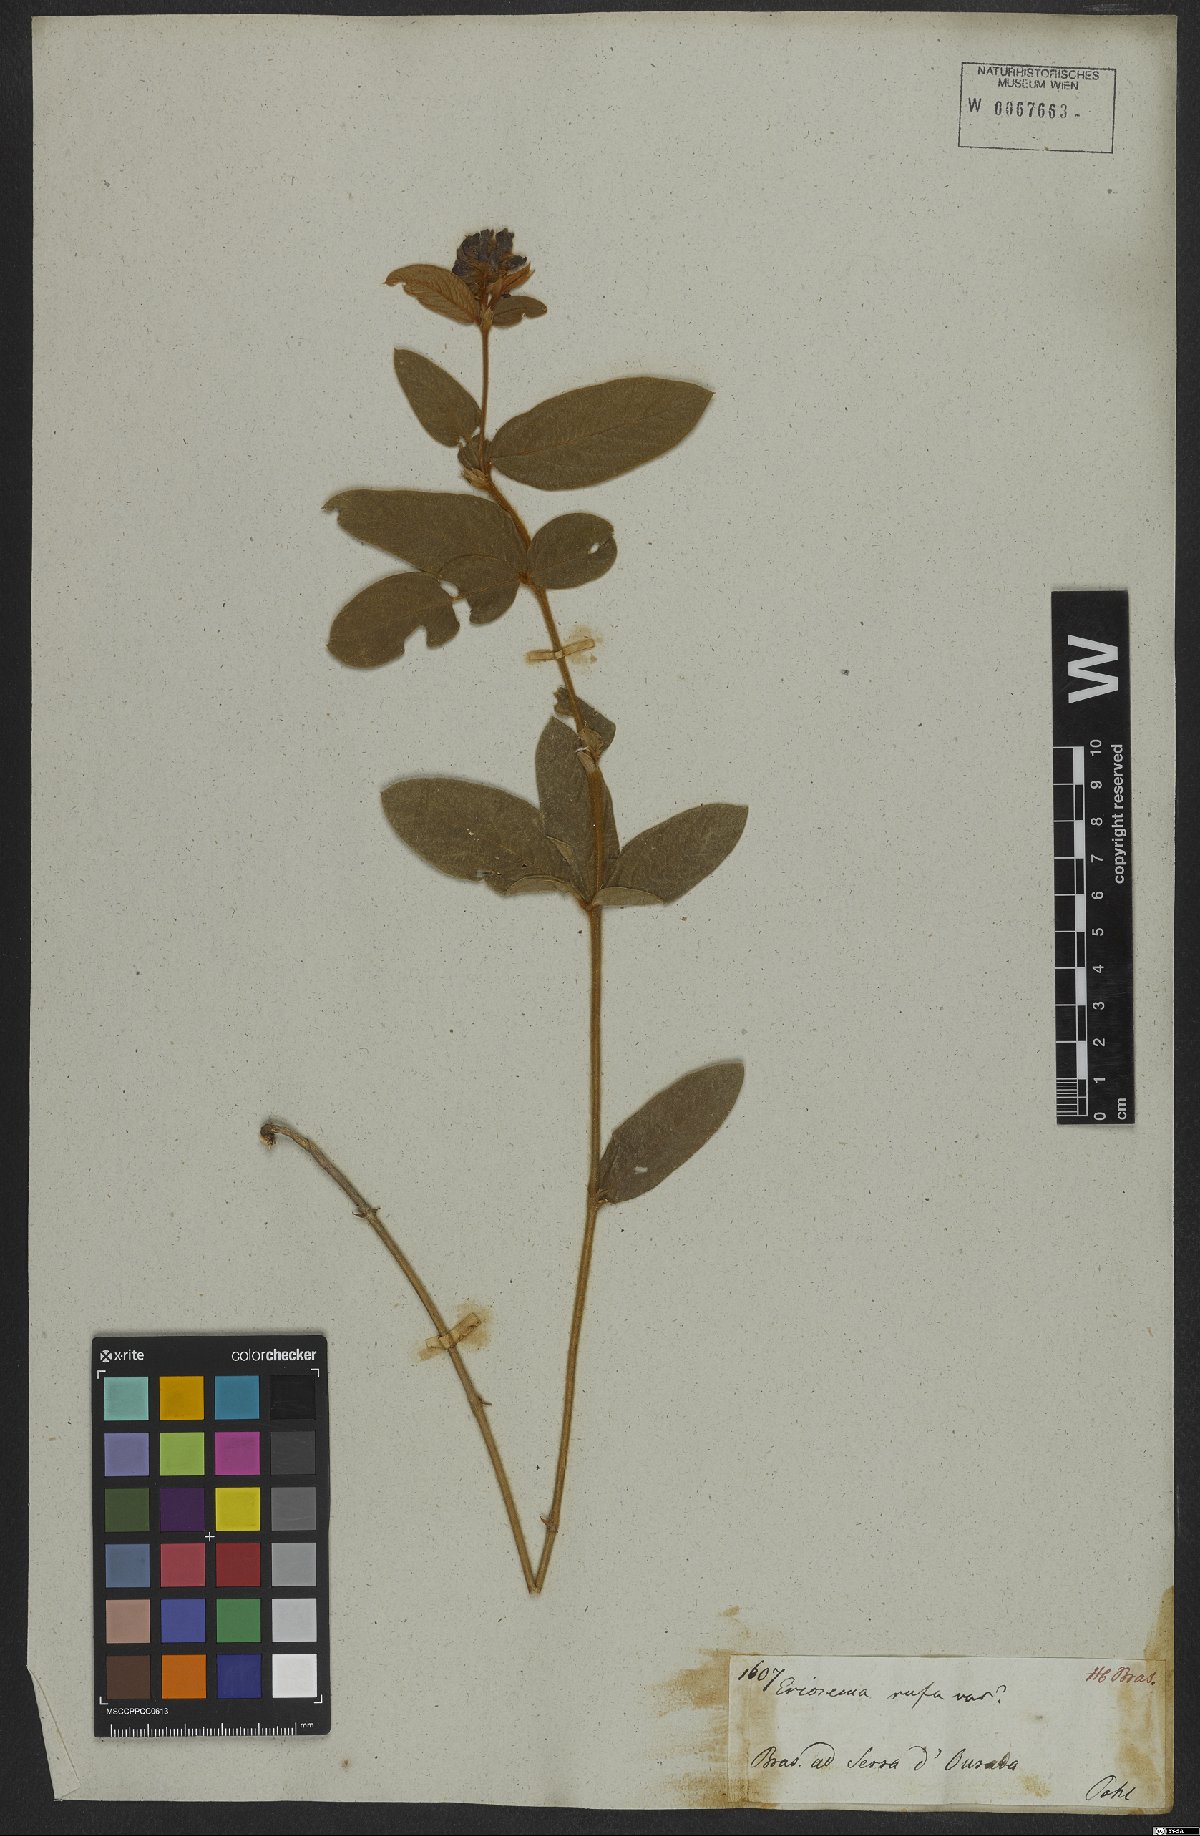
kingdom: Plantae
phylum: Tracheophyta
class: Magnoliopsida
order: Fabales
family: Fabaceae
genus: Eriosema
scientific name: Eriosema rufum
